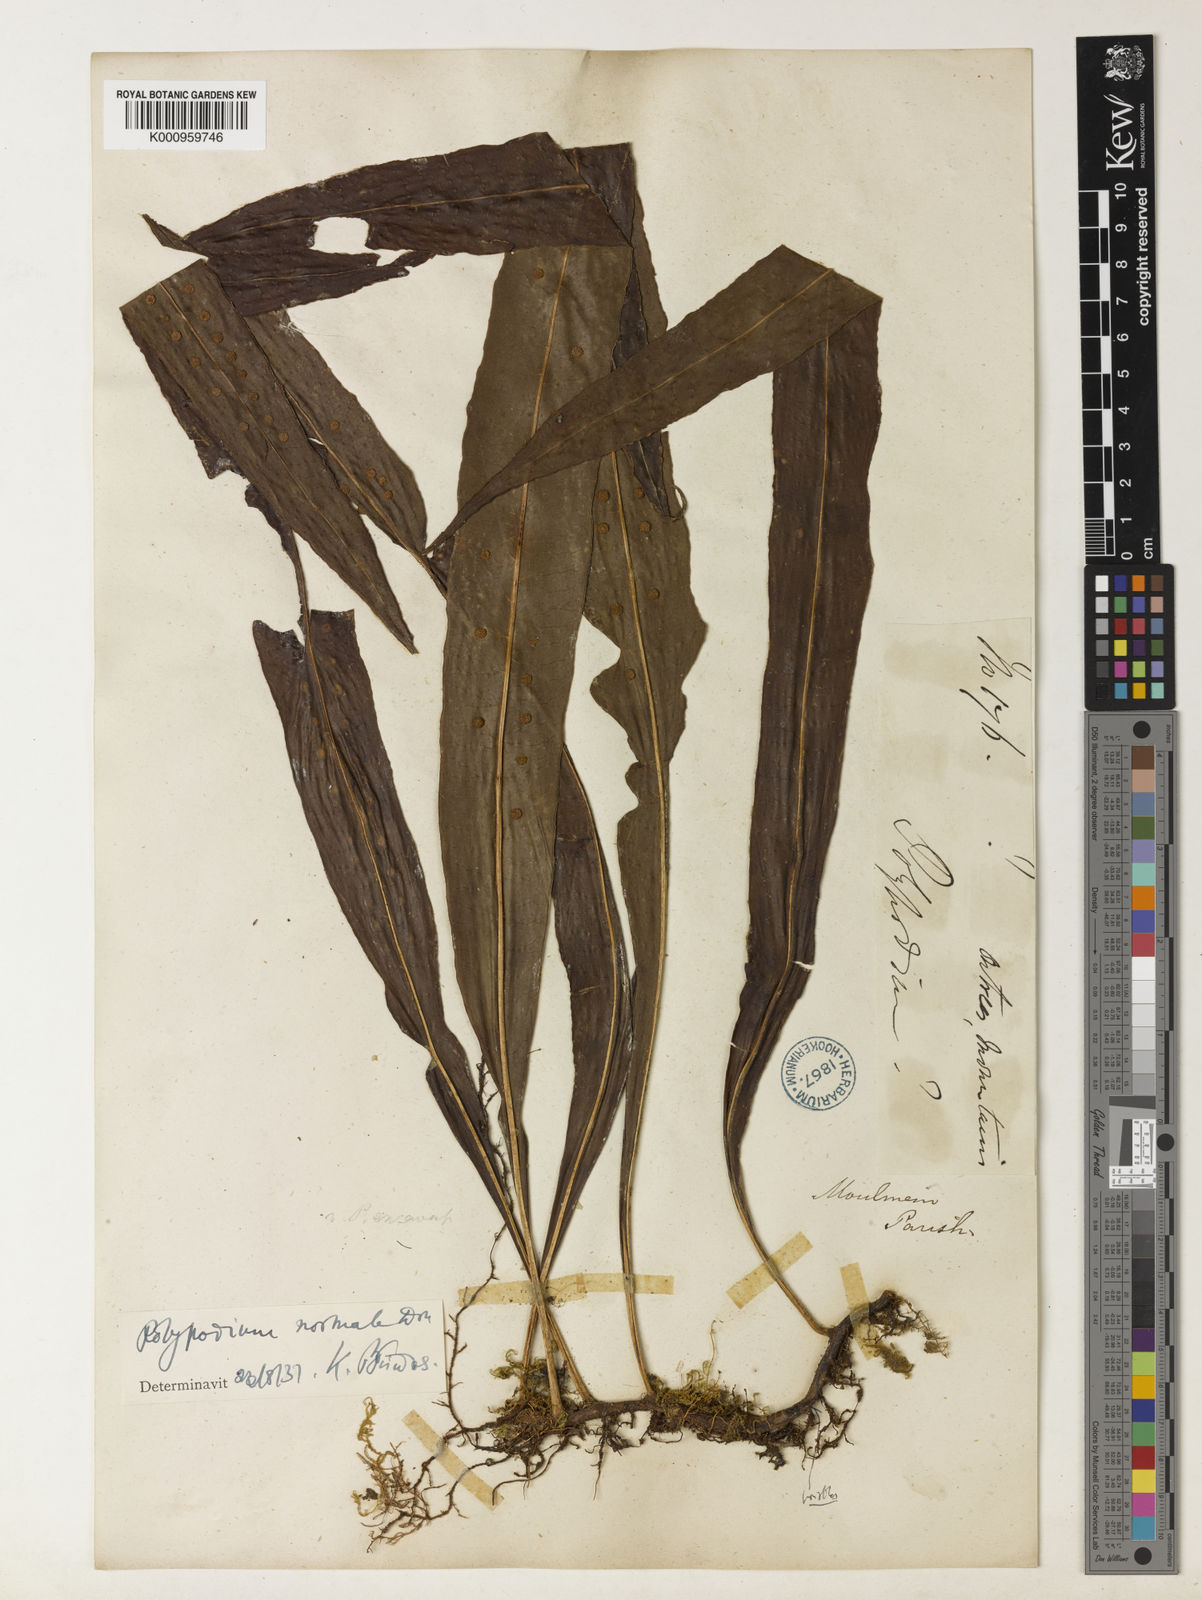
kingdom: Plantae
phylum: Tracheophyta
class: Polypodiopsida
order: Polypodiales
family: Polypodiaceae
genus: Lepisorus
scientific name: Lepisorus normalis
